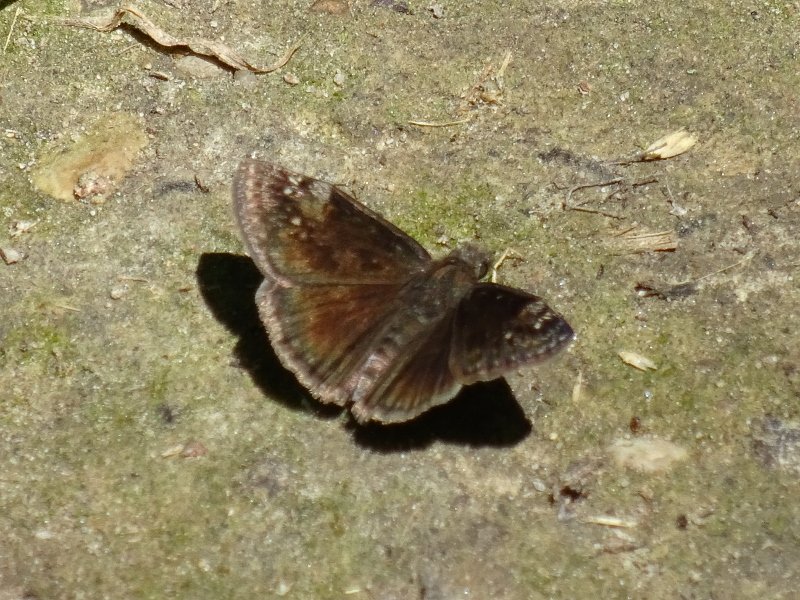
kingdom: Animalia
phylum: Arthropoda
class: Insecta
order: Lepidoptera
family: Hesperiidae
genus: Gesta
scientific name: Gesta
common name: Wild Indigo Duskywing
